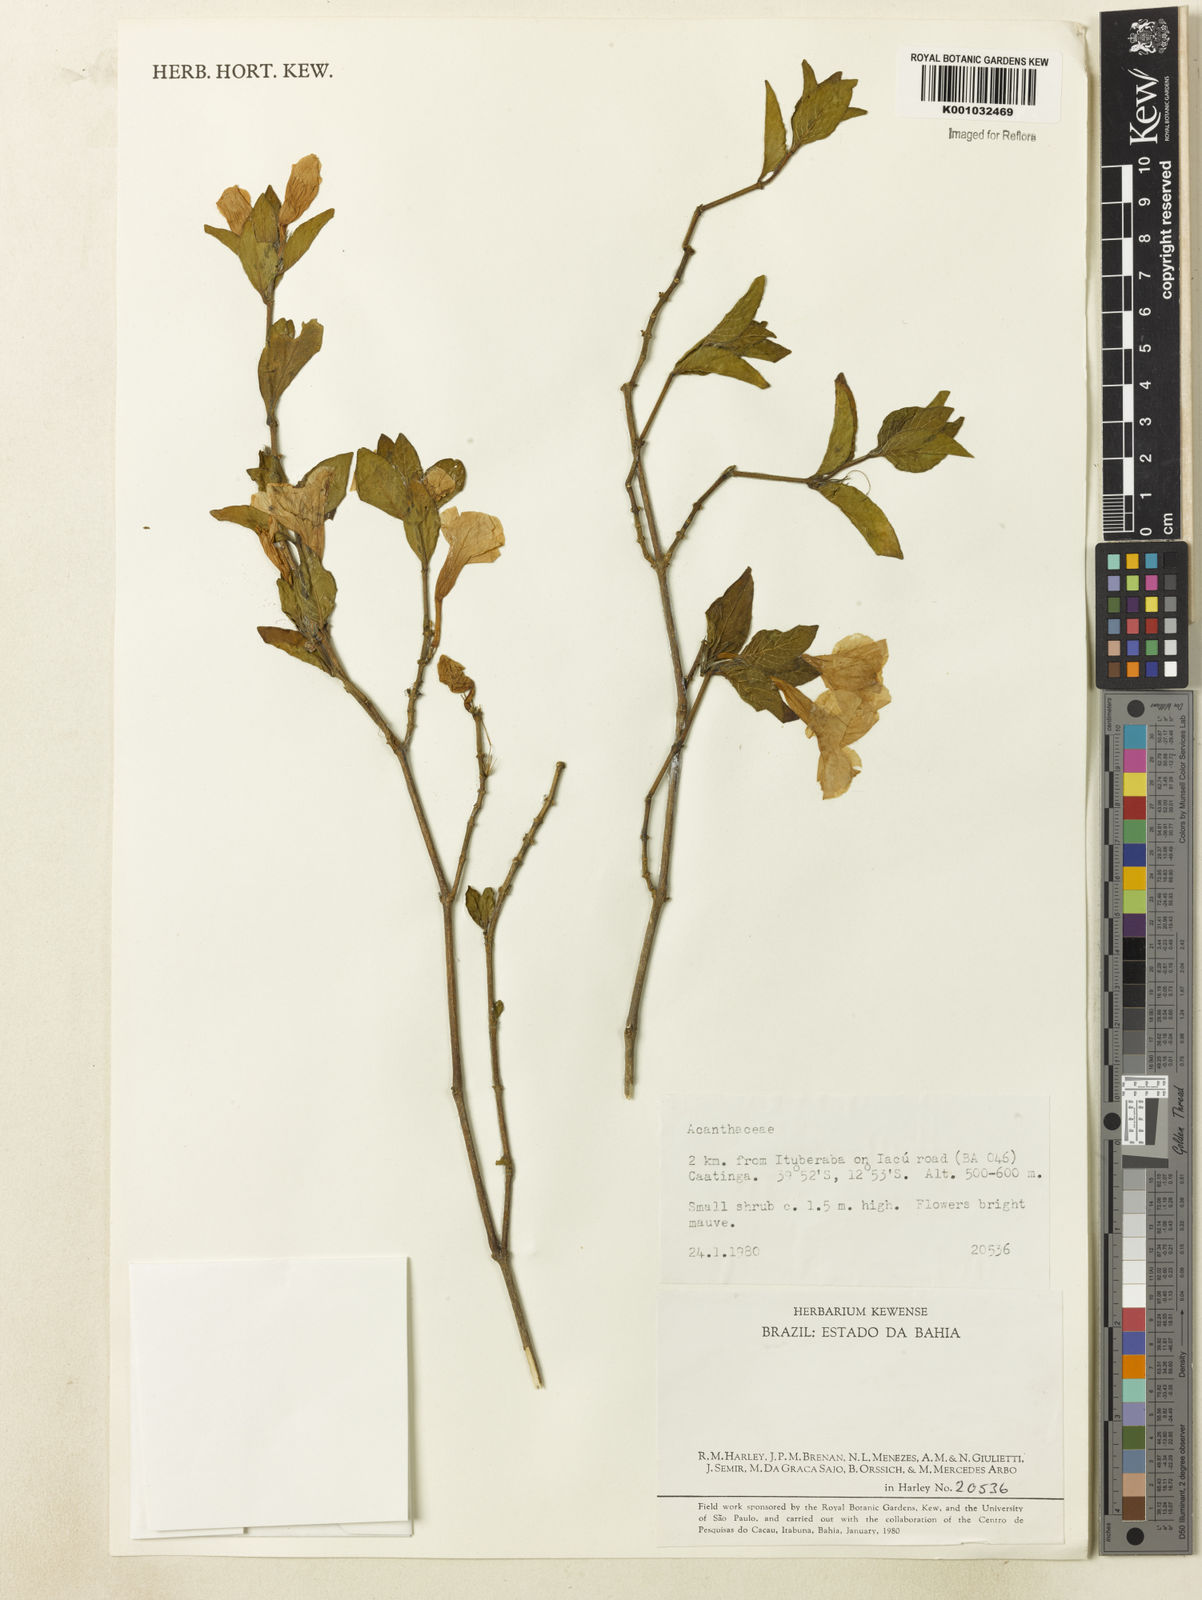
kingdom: Plantae
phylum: Tracheophyta
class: Magnoliopsida
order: Lamiales
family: Acanthaceae
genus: Ruellia
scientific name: Ruellia bahiensis
